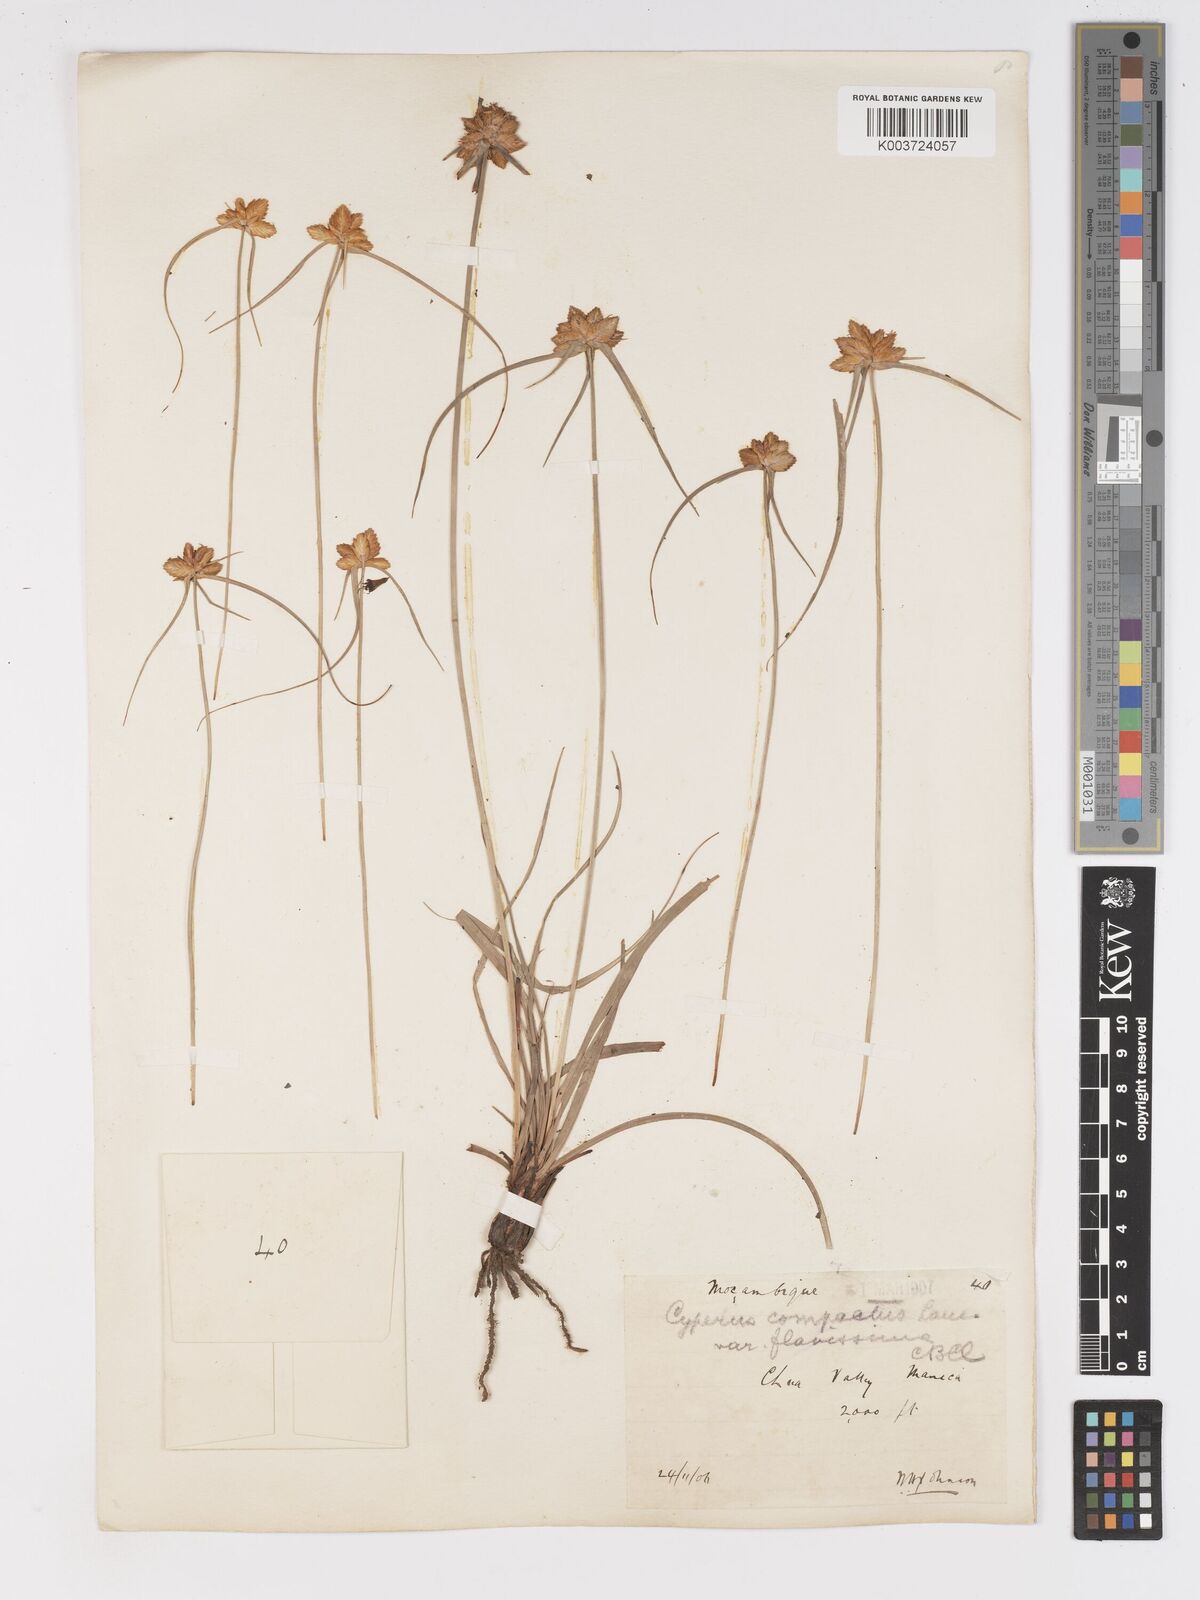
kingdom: Plantae
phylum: Tracheophyta
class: Liliopsida
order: Poales
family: Cyperaceae
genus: Cyperus
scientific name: Cyperus niveus
